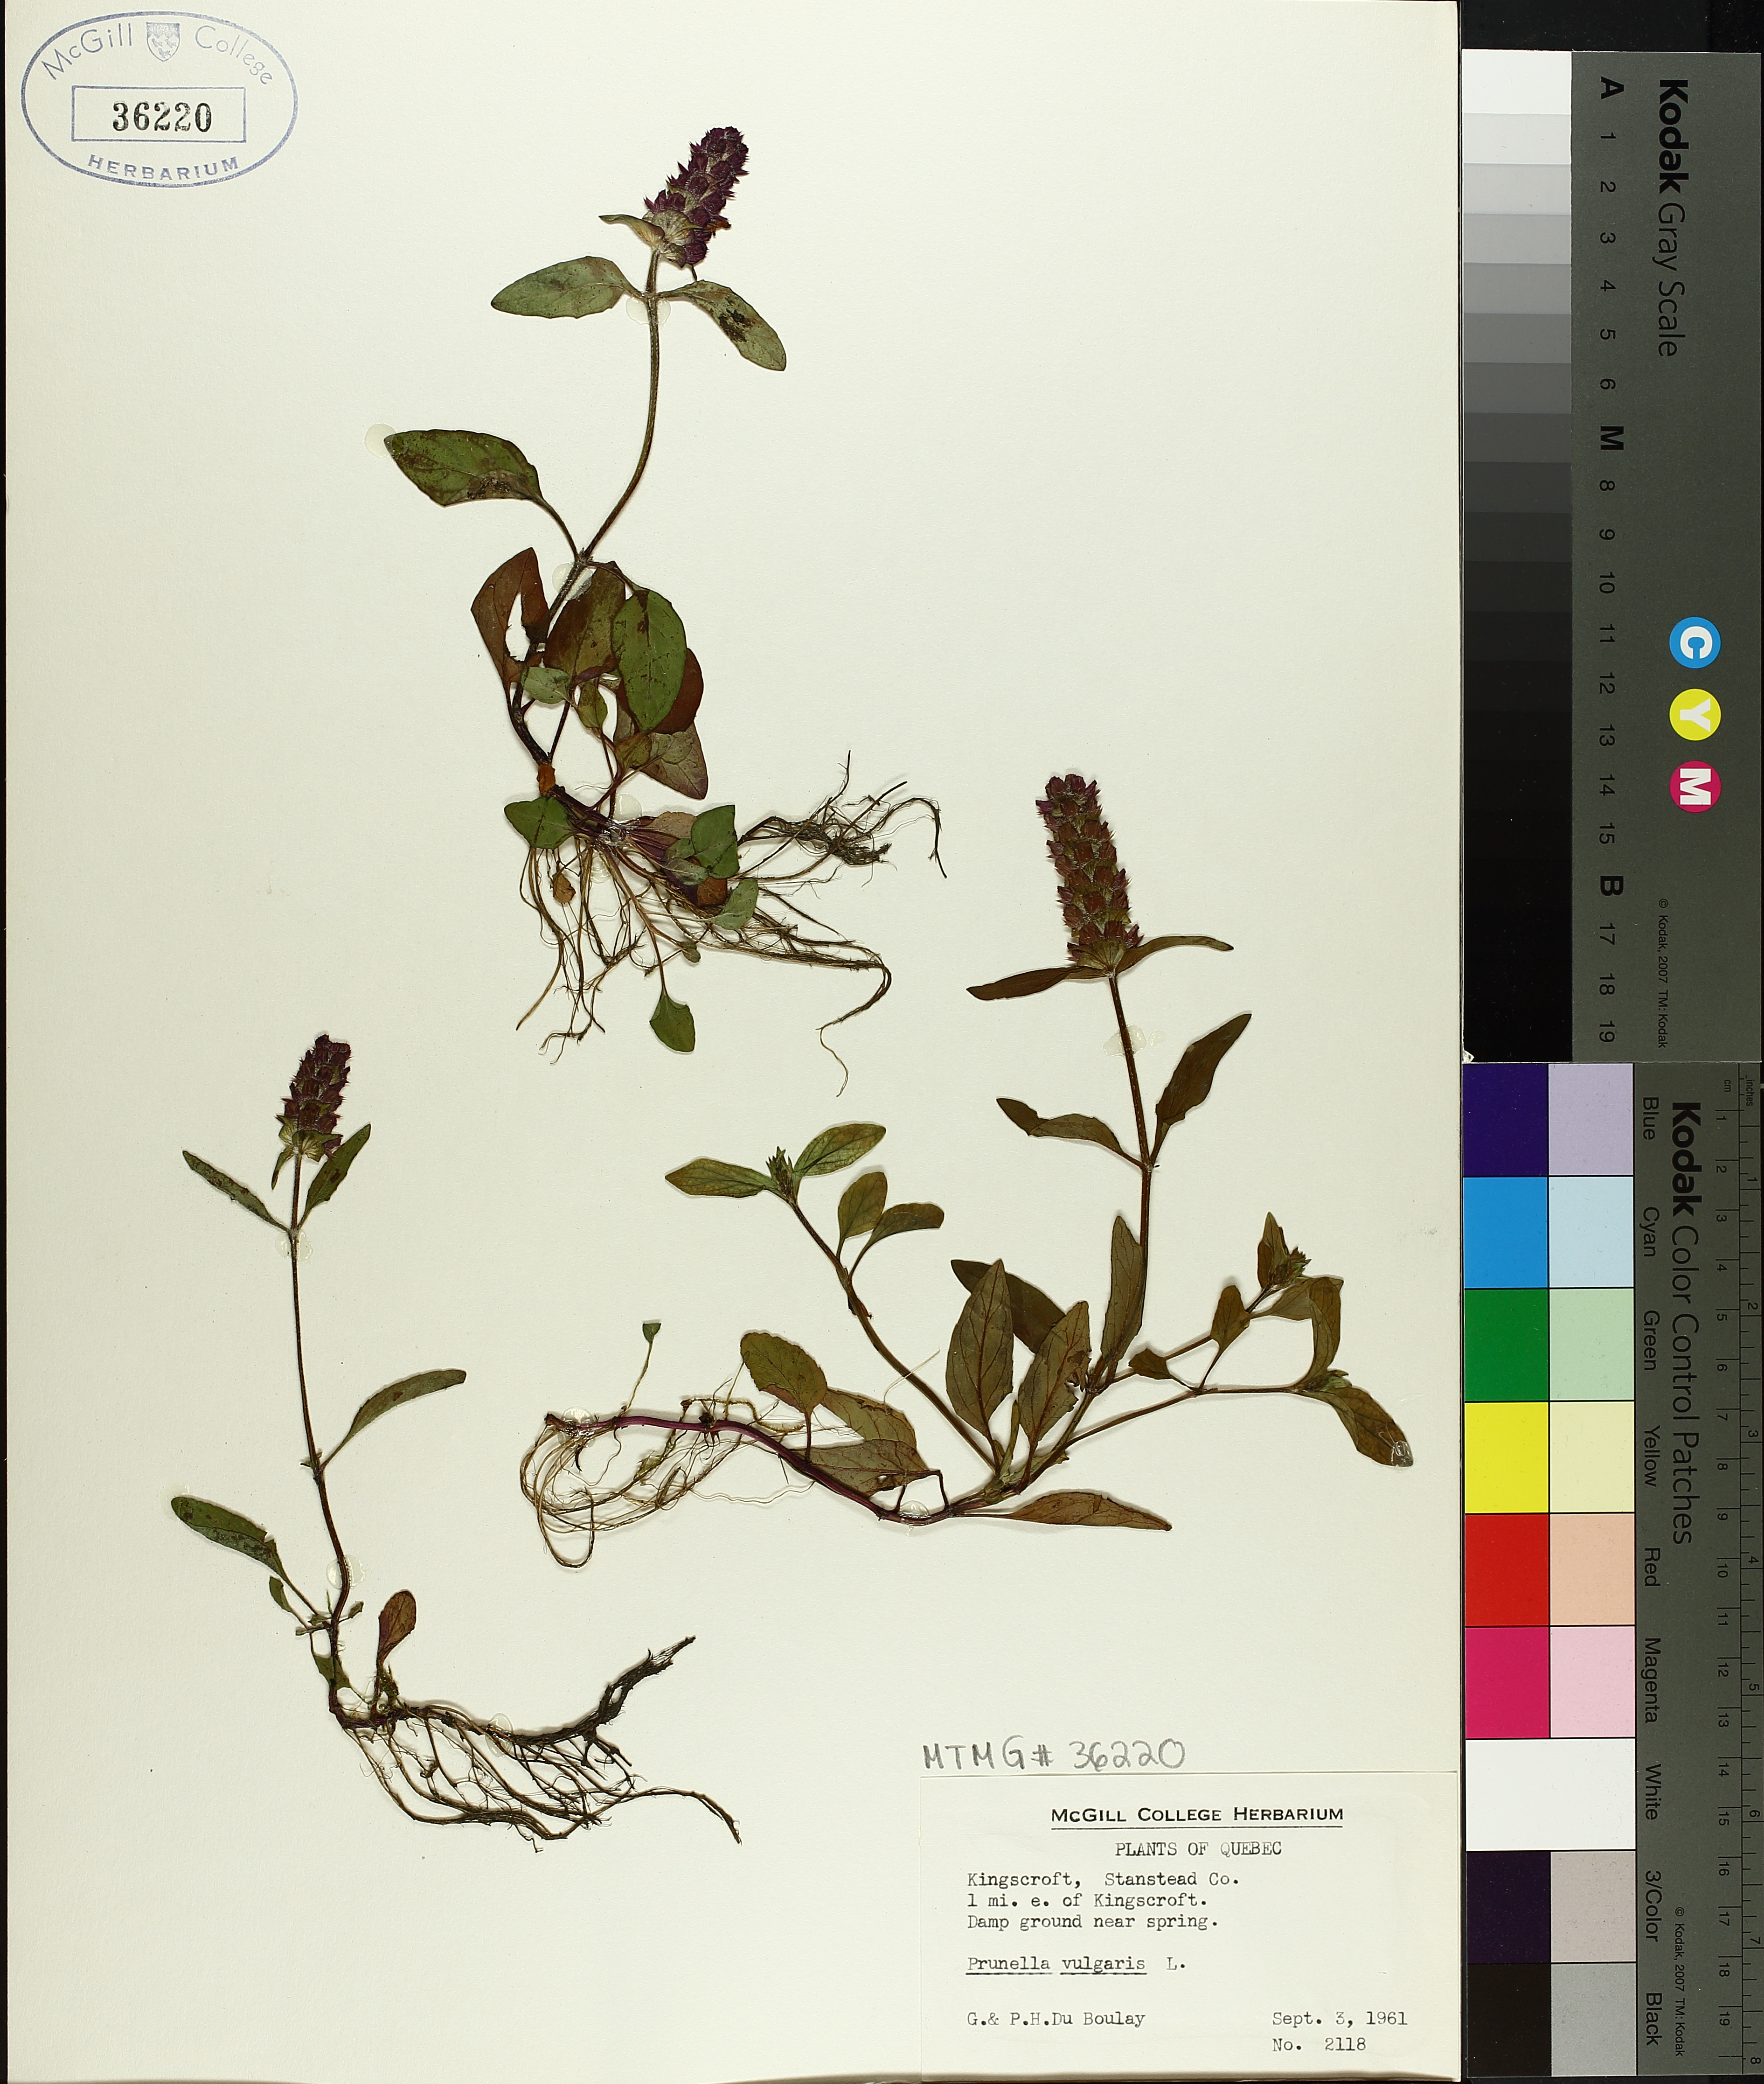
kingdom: Plantae
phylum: Tracheophyta
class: Magnoliopsida
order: Lamiales
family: Lamiaceae
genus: Prunella
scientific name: Prunella vulgaris
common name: Heal-all
